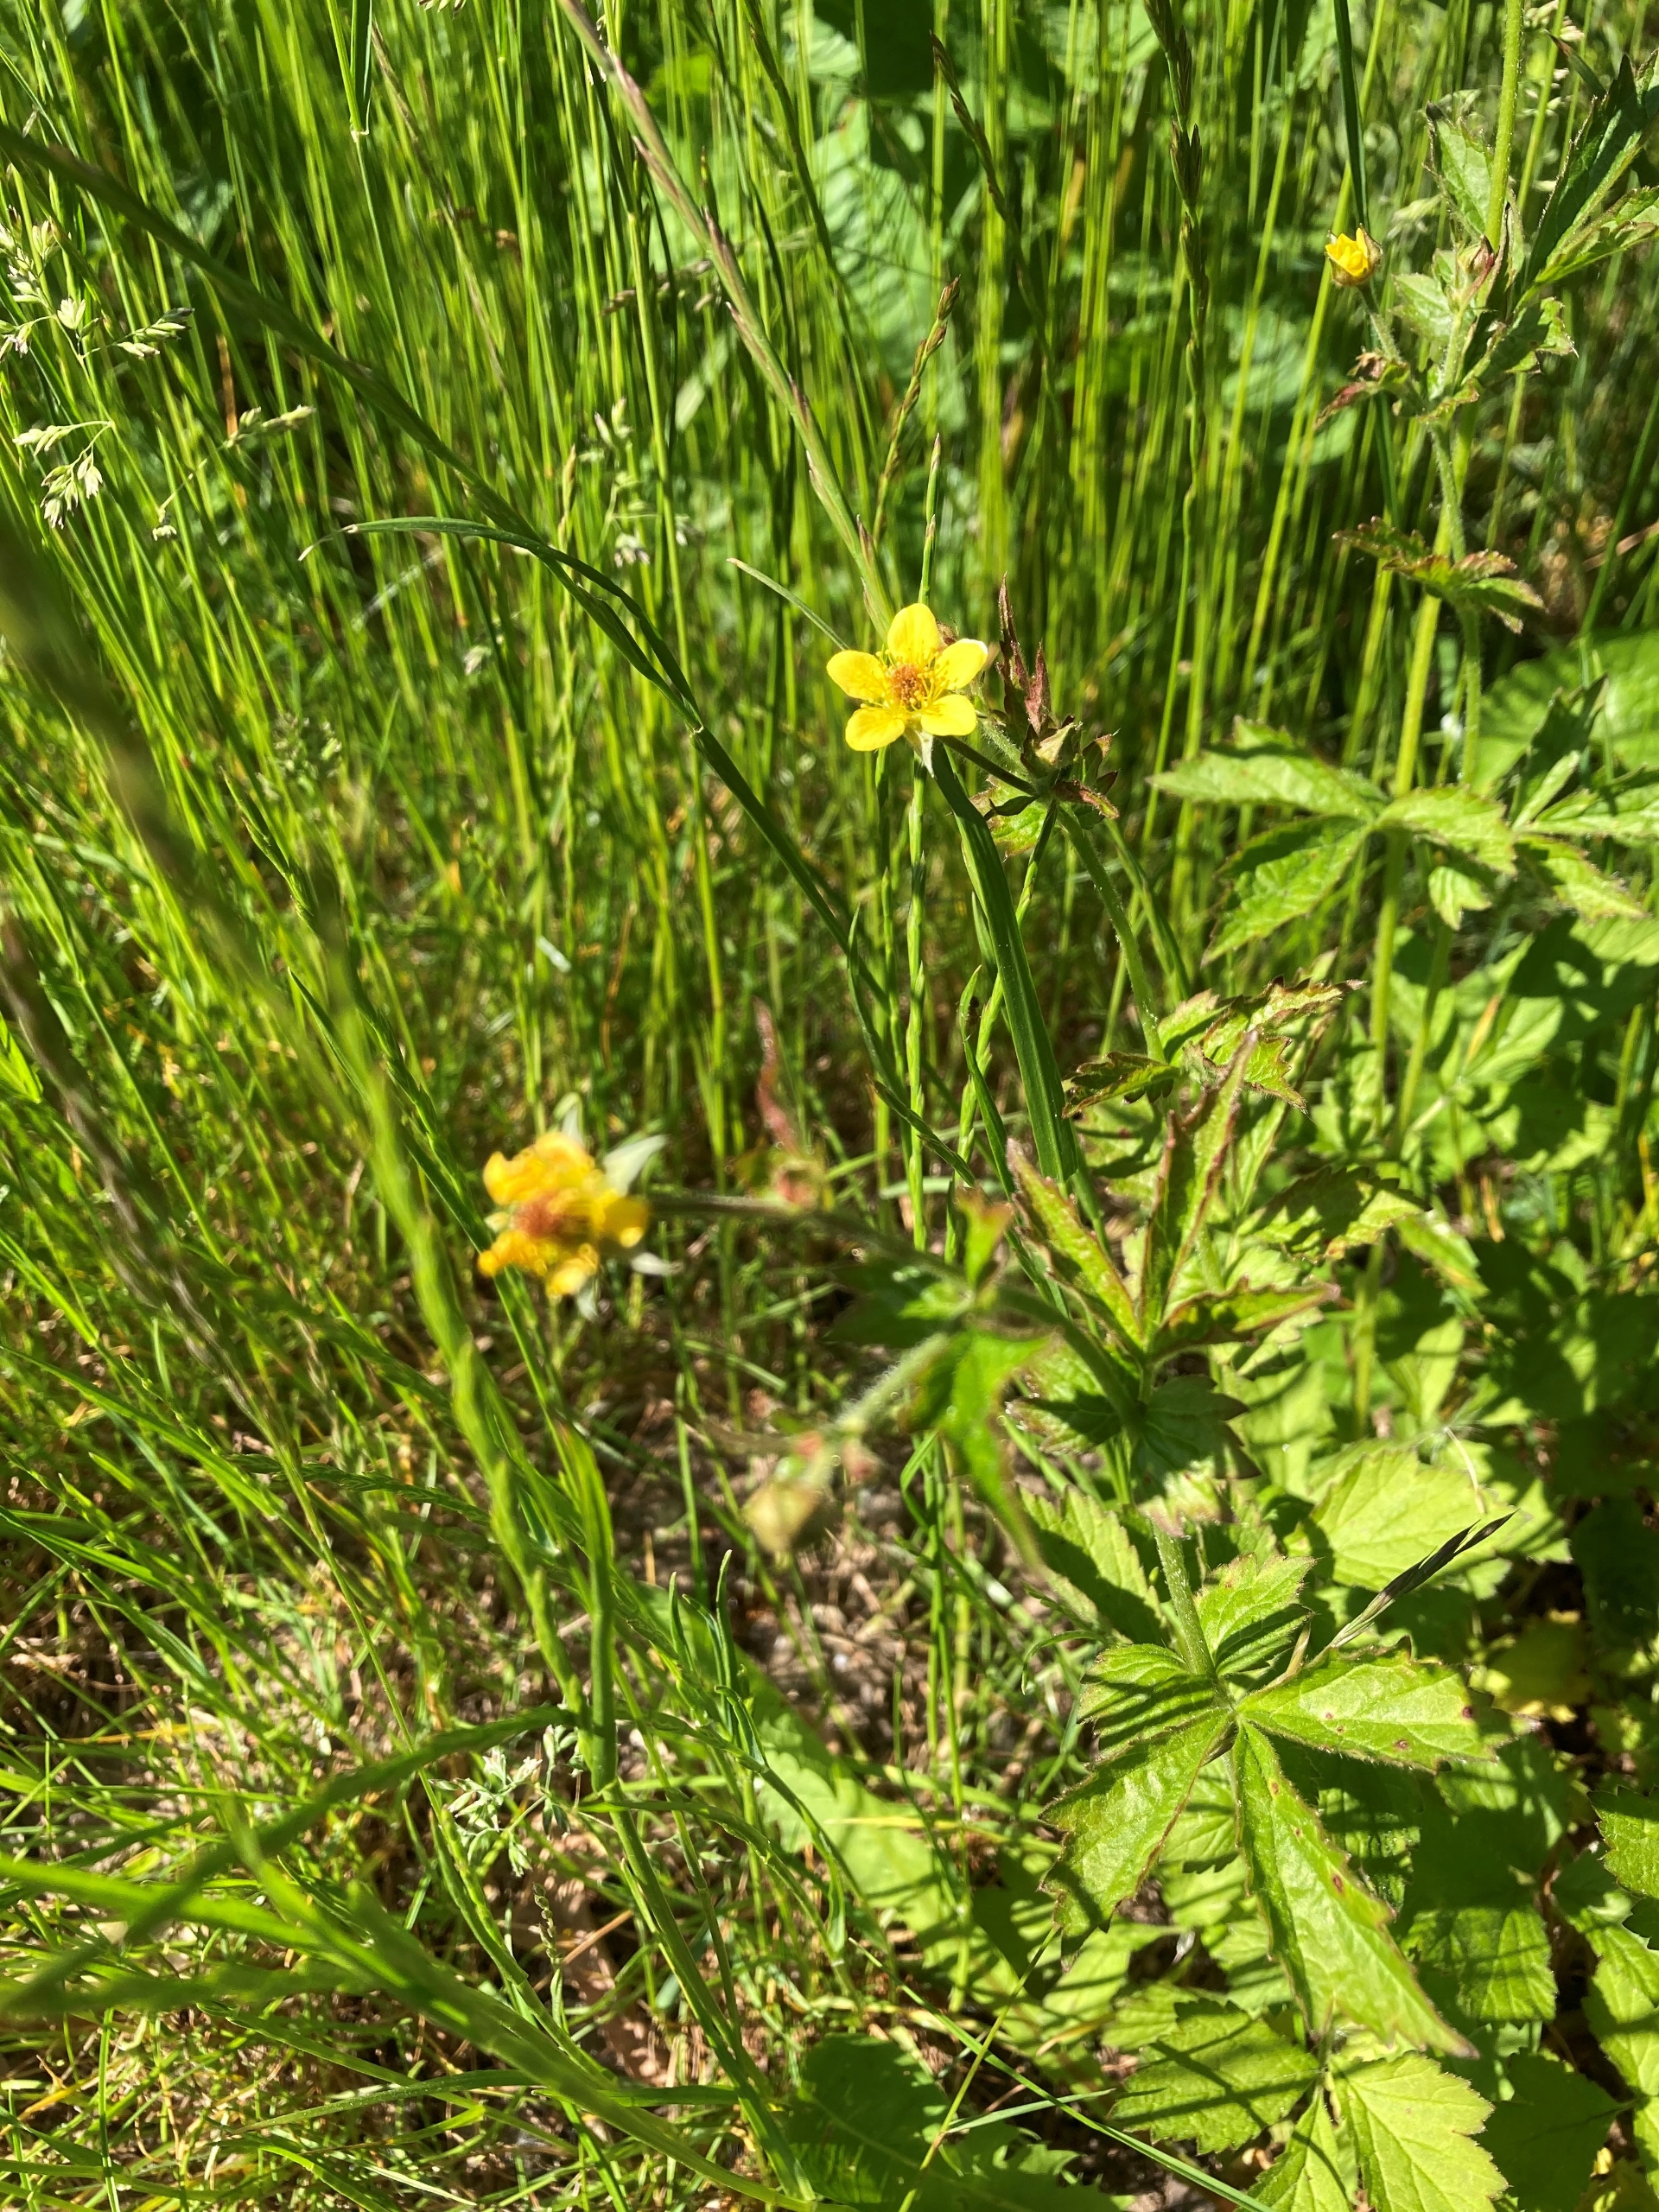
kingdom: Plantae
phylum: Tracheophyta
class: Magnoliopsida
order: Rosales
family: Rosaceae
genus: Geum
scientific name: Geum urbanum
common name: Feber-nellikerod
